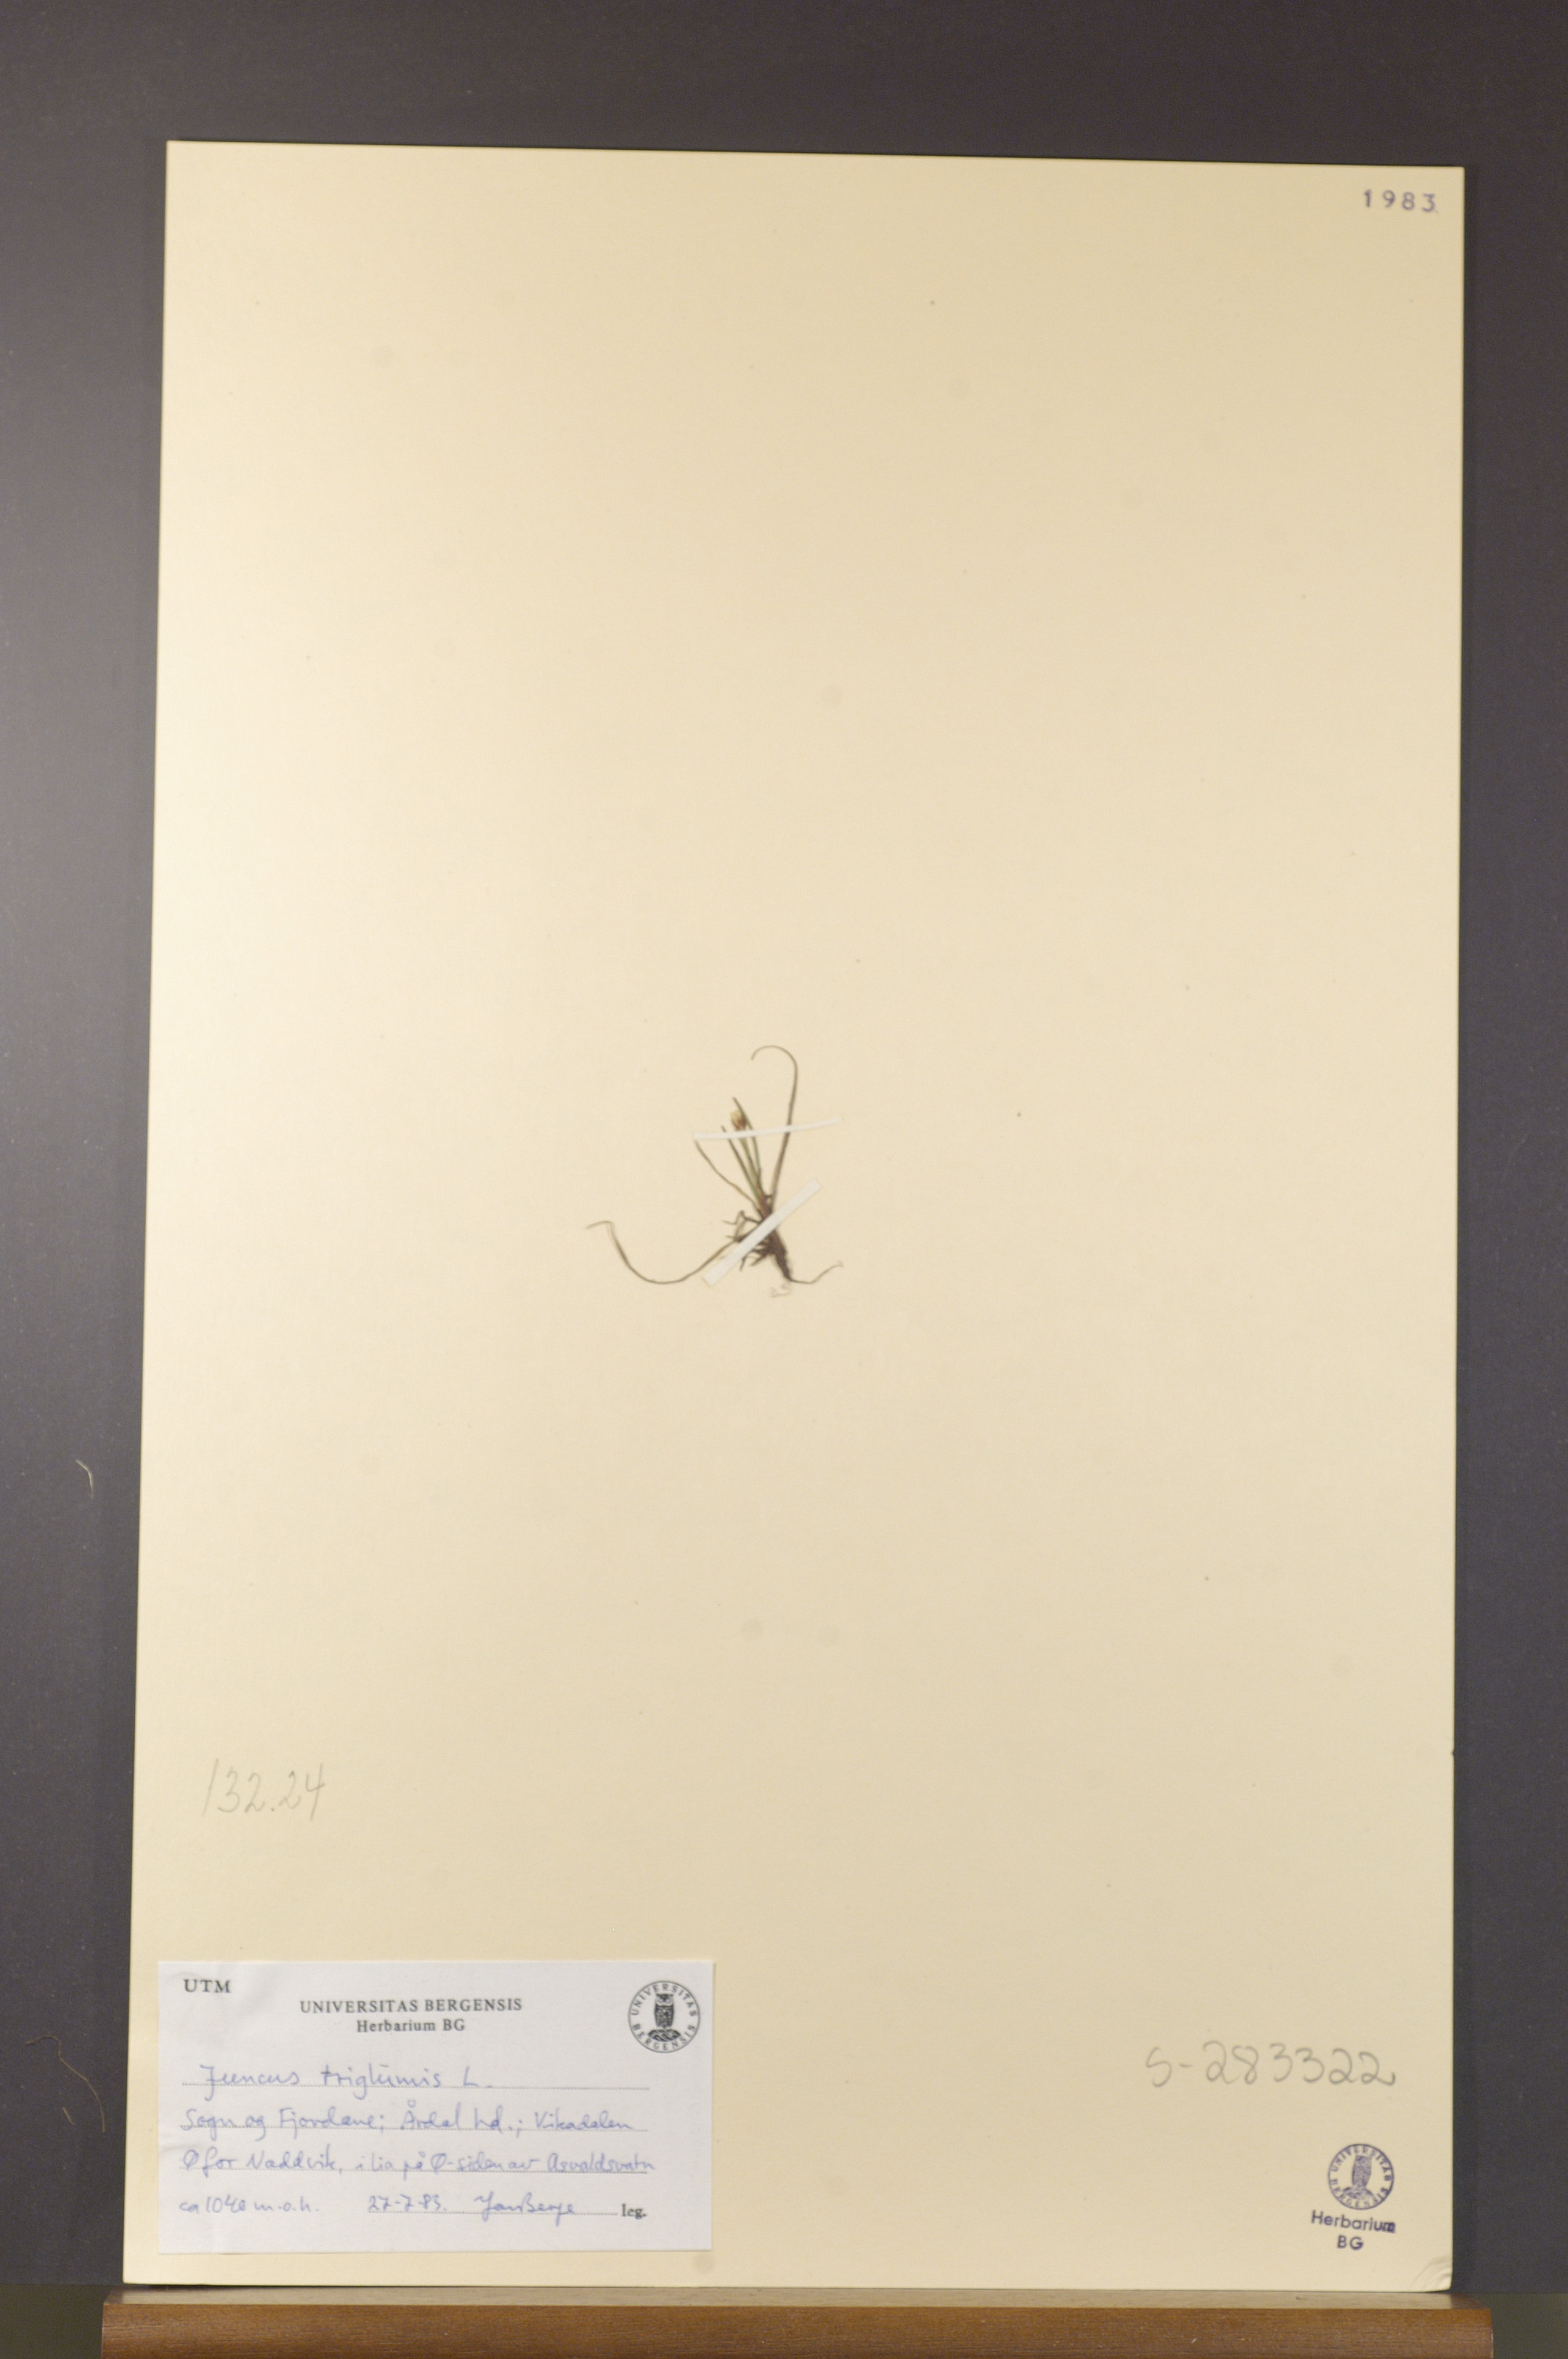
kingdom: Plantae
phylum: Tracheophyta
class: Liliopsida
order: Poales
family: Juncaceae
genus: Juncus
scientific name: Juncus triglumis
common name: Three-flowered rush
